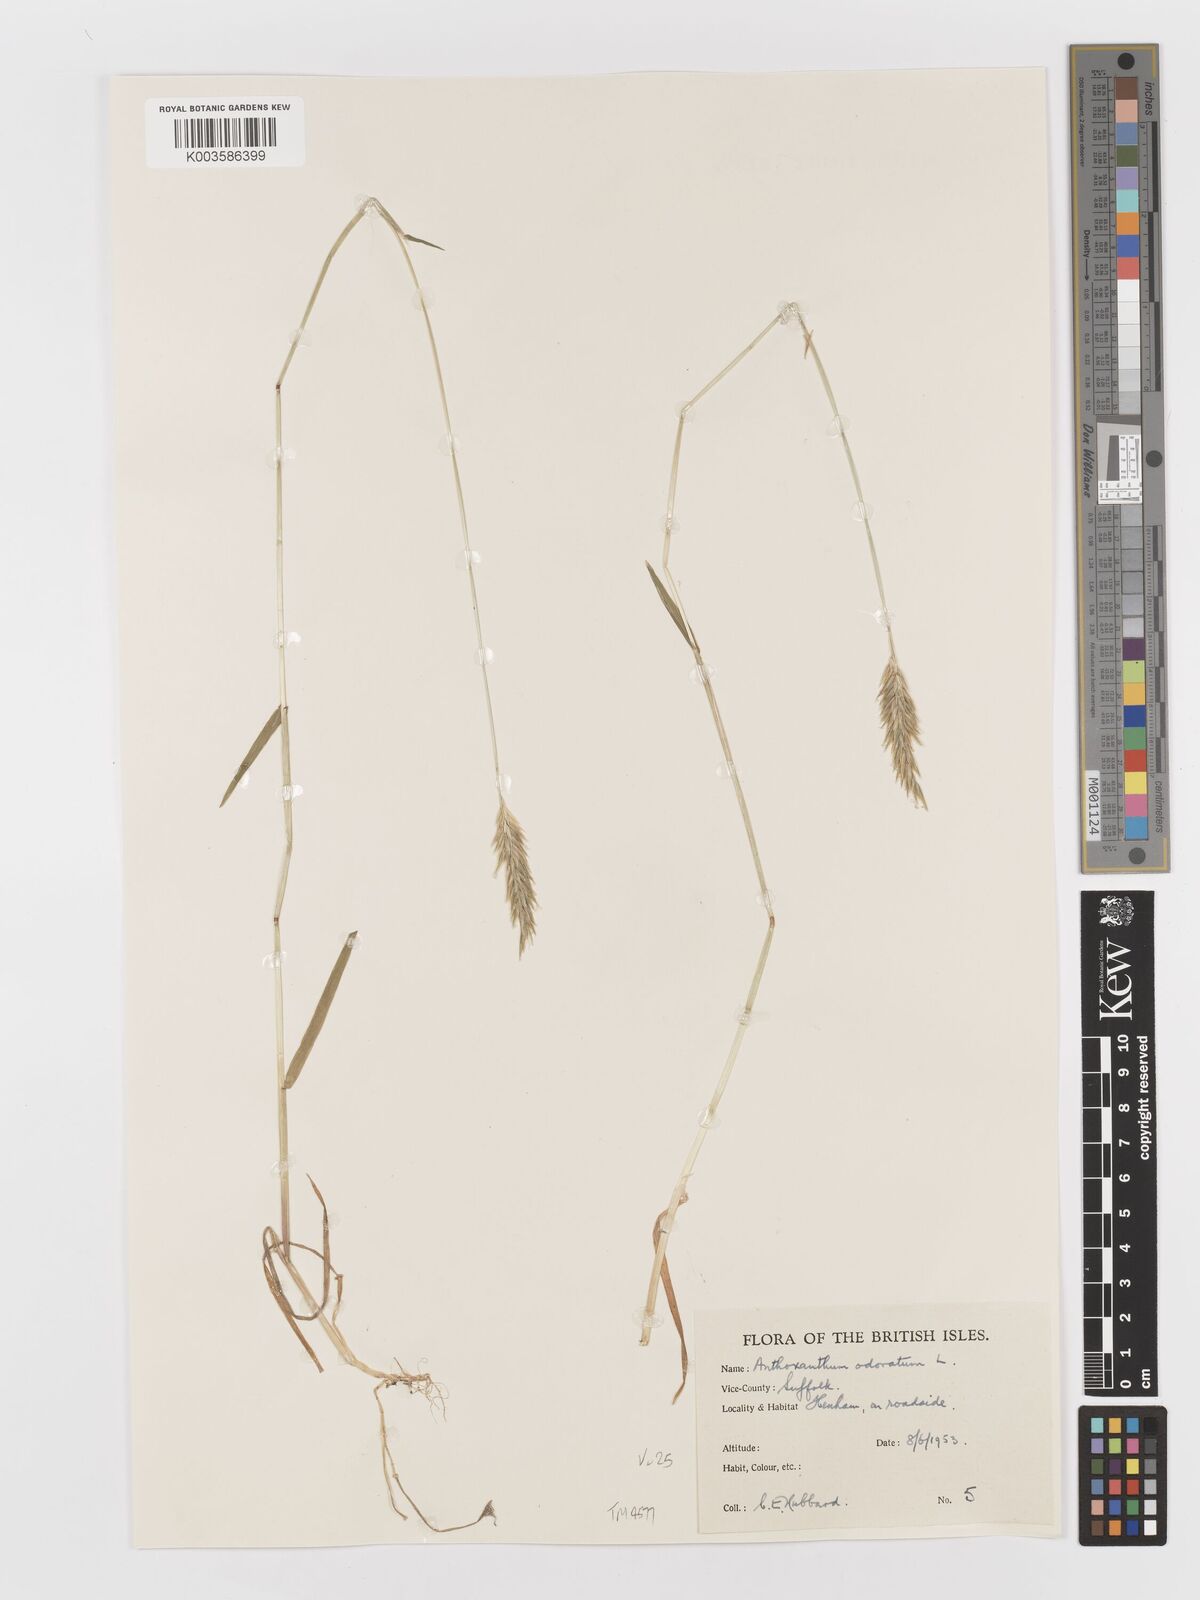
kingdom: Plantae
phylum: Tracheophyta
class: Liliopsida
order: Poales
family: Poaceae
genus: Anthoxanthum
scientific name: Anthoxanthum odoratum
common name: Sweet vernalgrass
